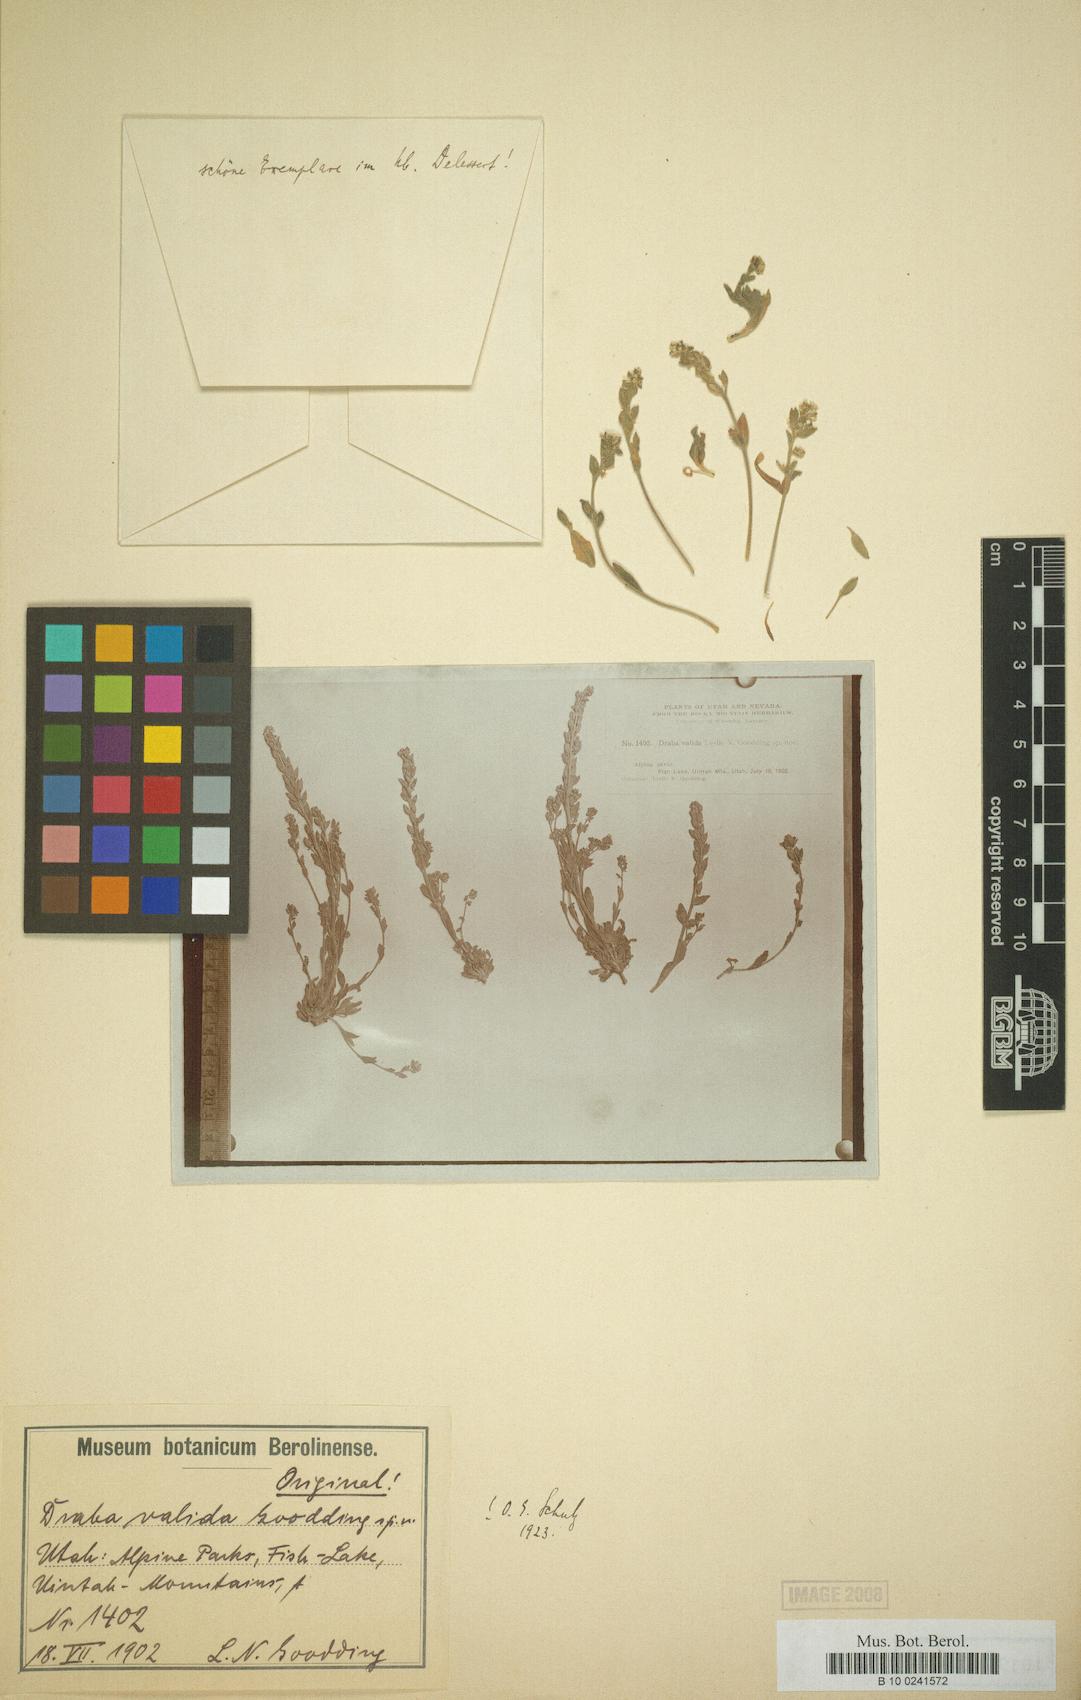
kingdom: Plantae
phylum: Tracheophyta
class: Magnoliopsida
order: Brassicales
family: Brassicaceae
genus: Draba
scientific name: Draba cana
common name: Hoary draba
